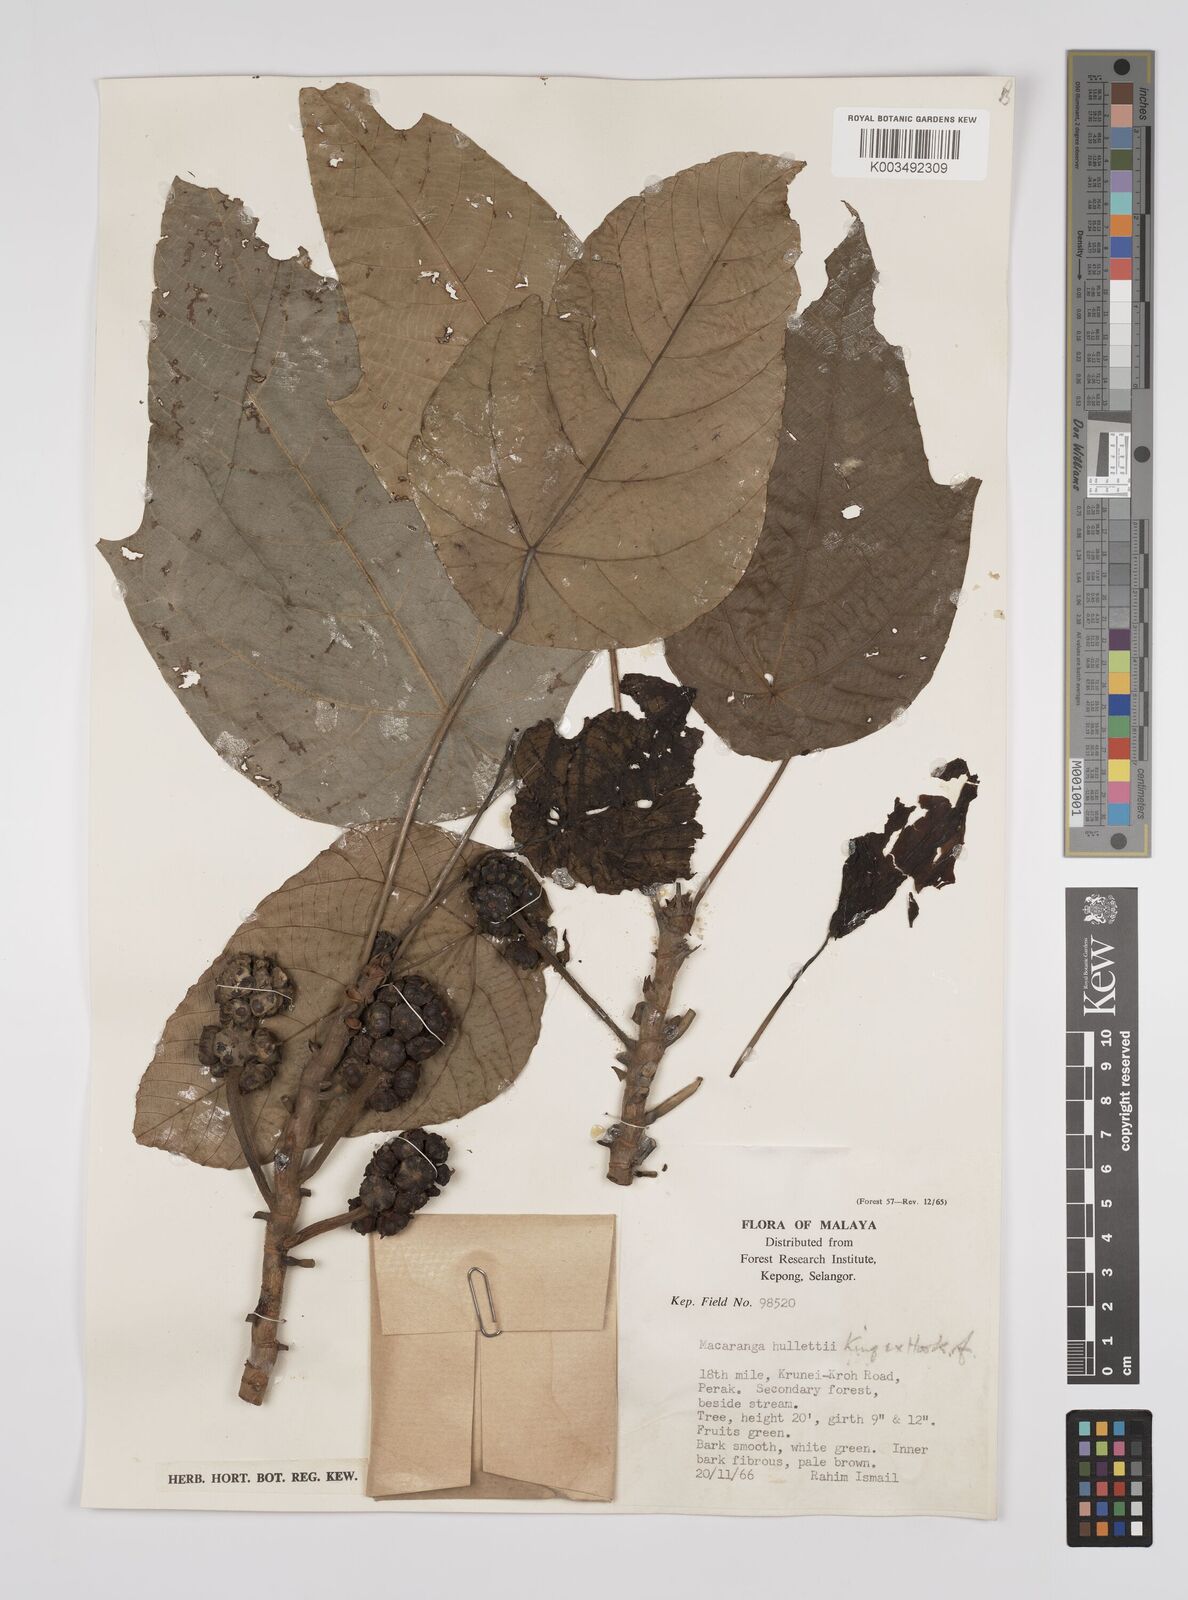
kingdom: Plantae
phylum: Tracheophyta
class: Magnoliopsida
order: Malpighiales
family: Euphorbiaceae
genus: Macaranga
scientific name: Macaranga hullettii
